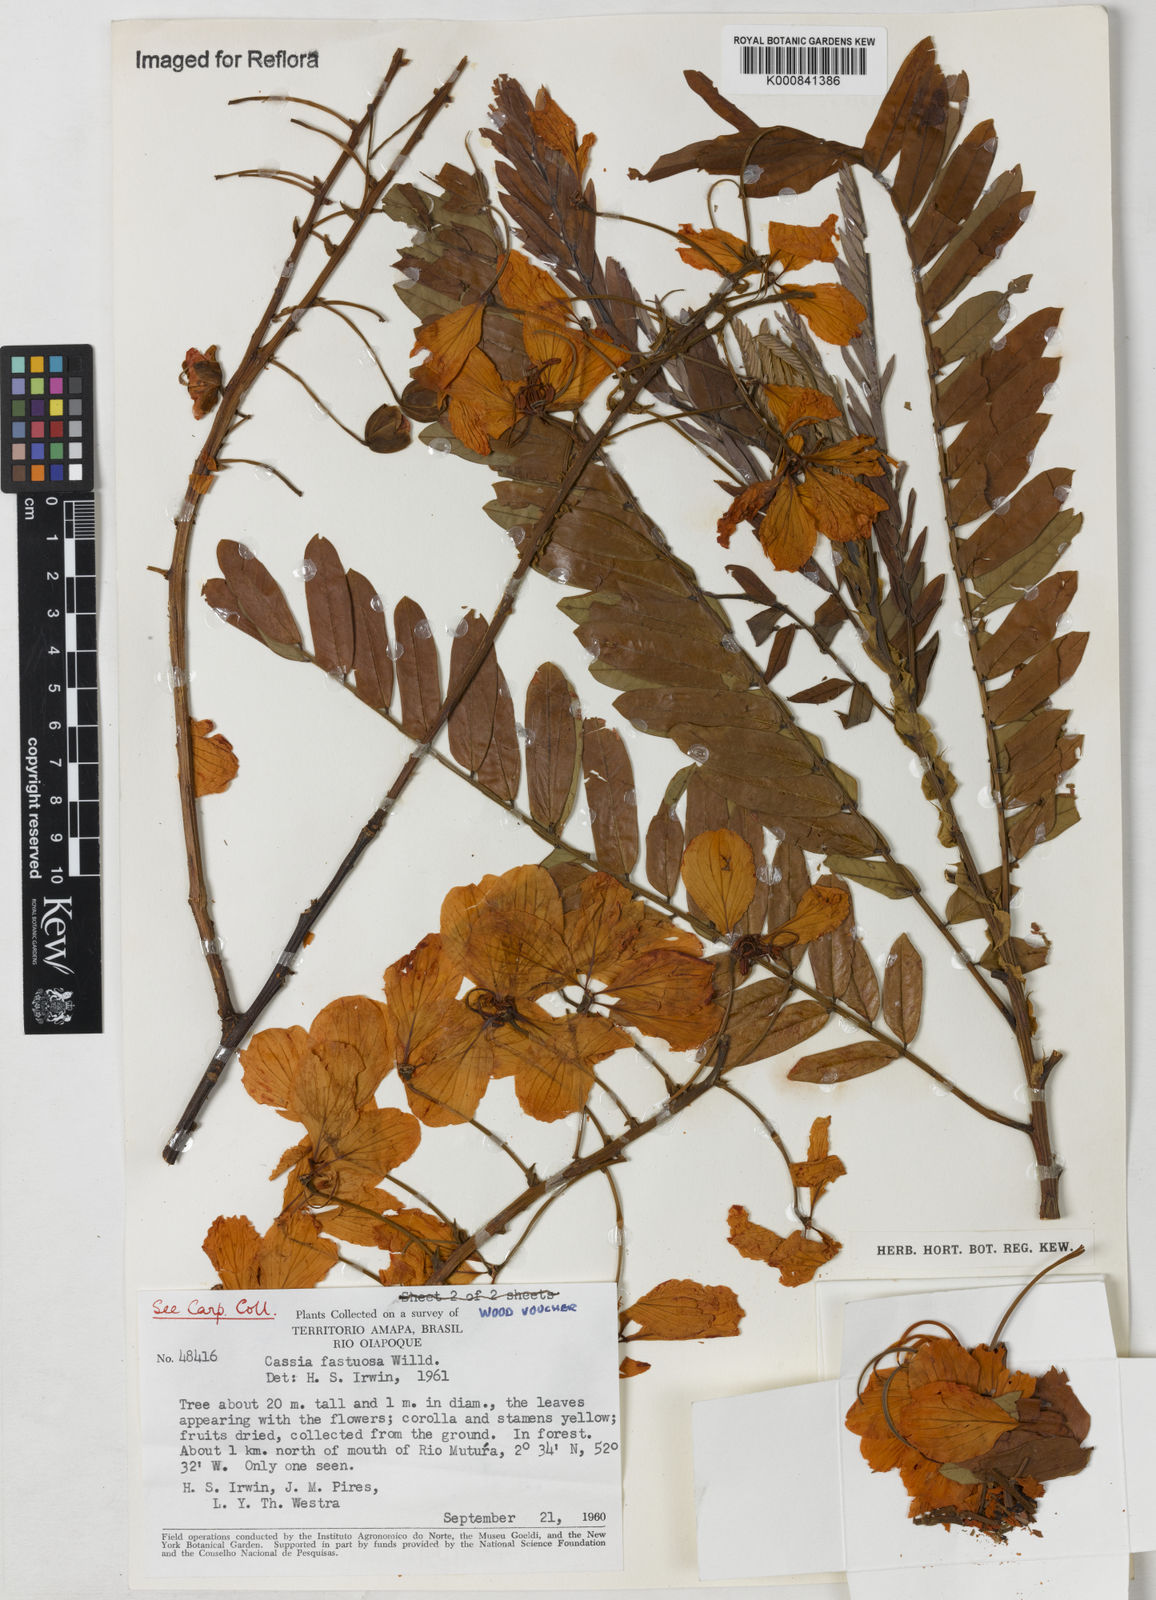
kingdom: Plantae
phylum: Tracheophyta
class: Magnoliopsida
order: Fabales
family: Fabaceae
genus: Cassia
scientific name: Cassia
